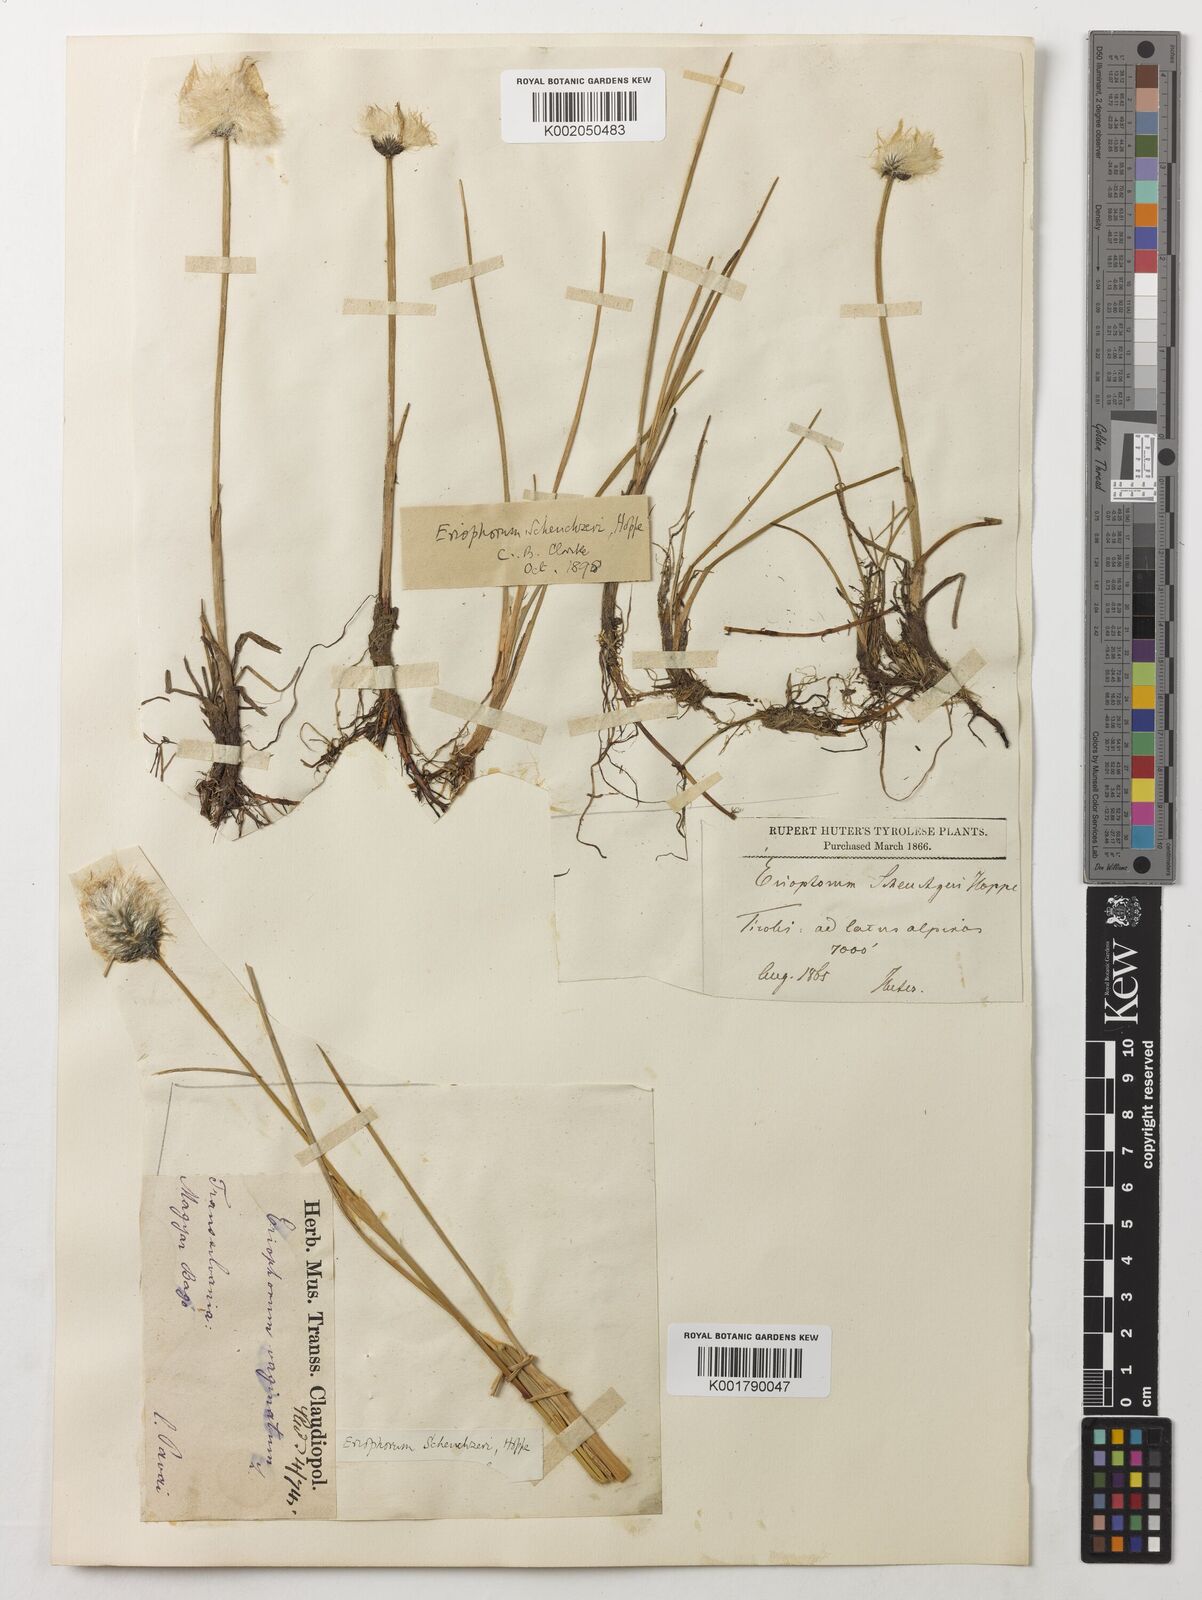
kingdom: Plantae
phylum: Tracheophyta
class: Liliopsida
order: Poales
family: Cyperaceae
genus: Eriophorum
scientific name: Eriophorum scheuchzeri
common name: Scheuchzer's cottongrass
